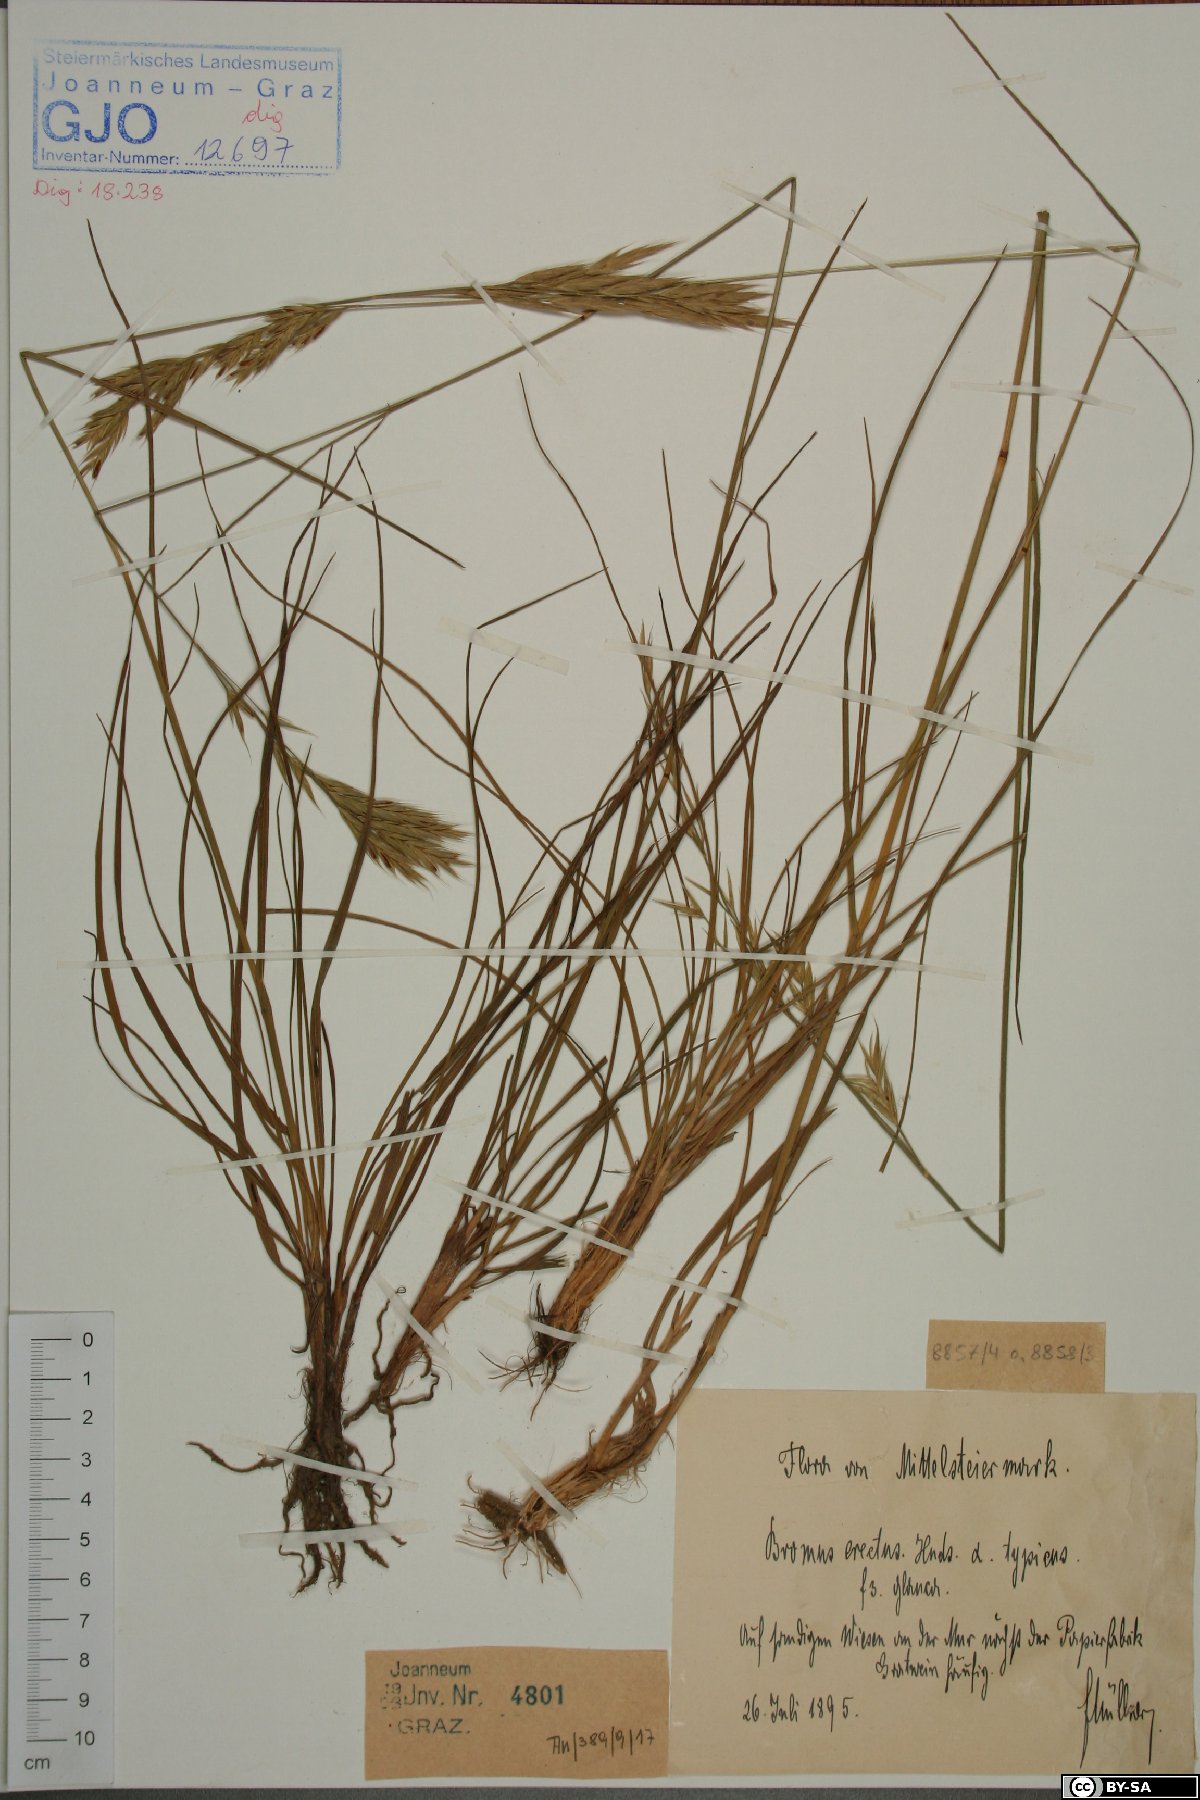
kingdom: Plantae
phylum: Tracheophyta
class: Liliopsida
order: Poales
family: Poaceae
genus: Bromus
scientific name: Bromus erectus
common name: Erect brome
